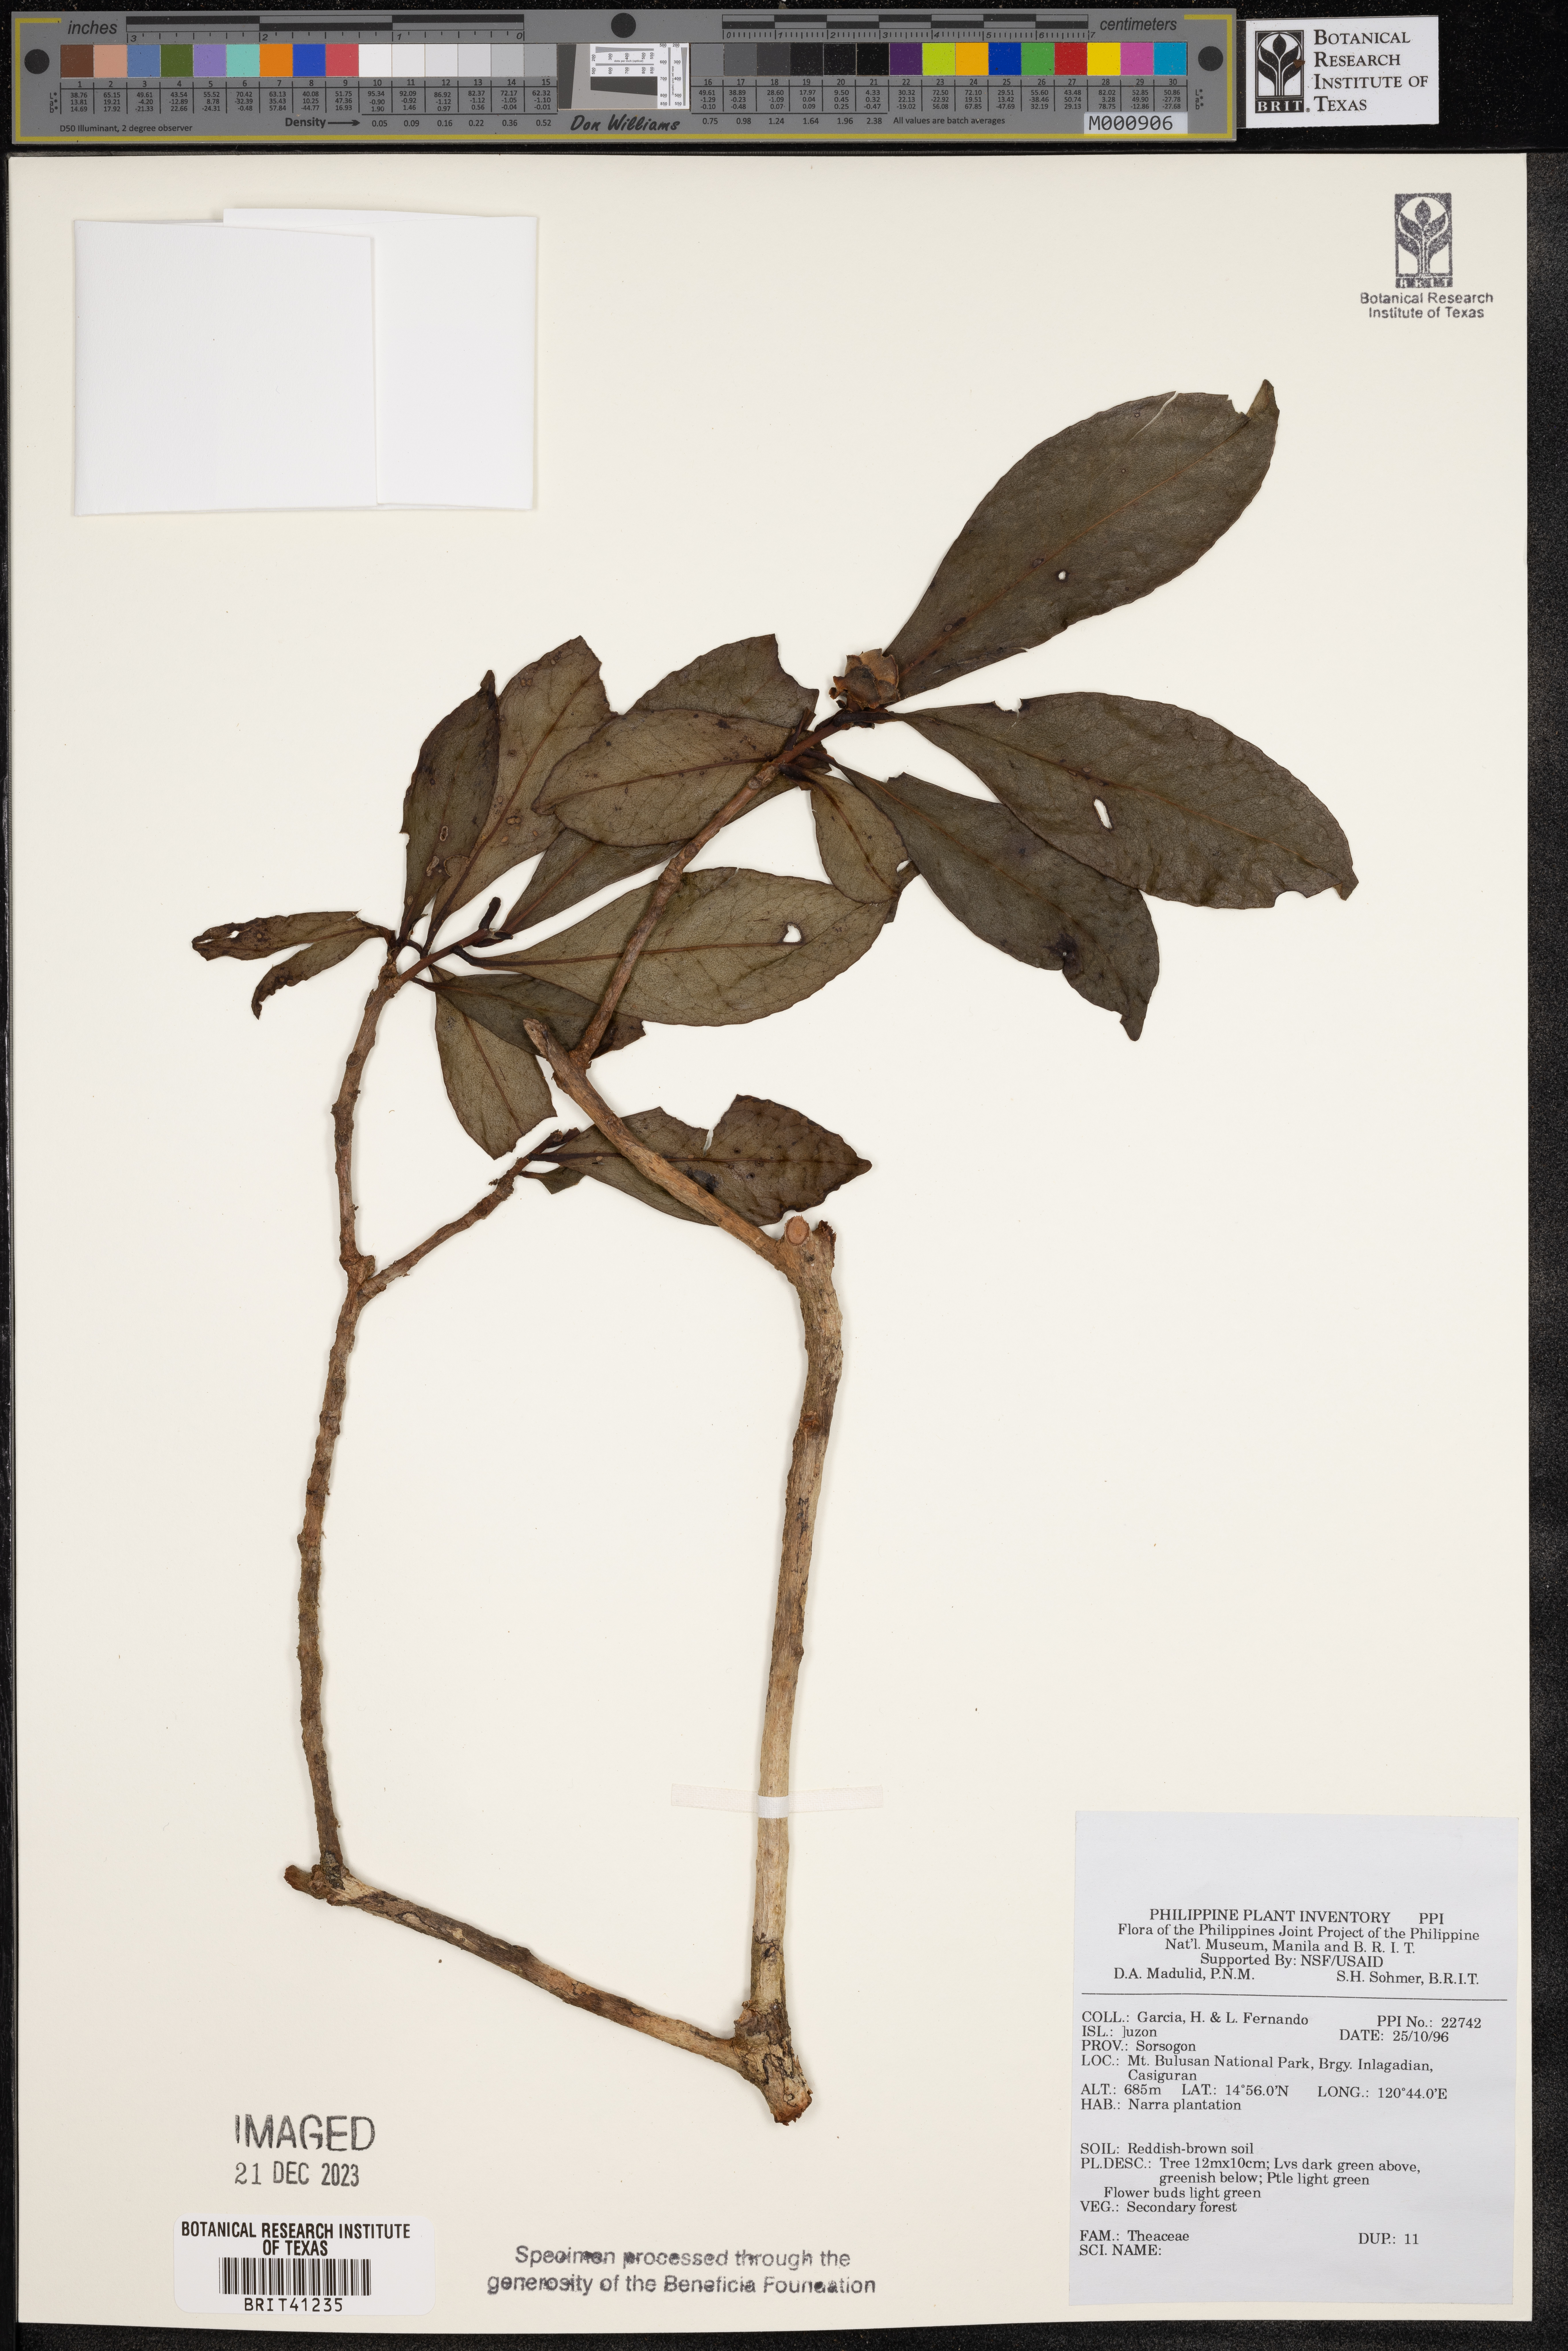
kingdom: Plantae
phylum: Tracheophyta
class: Magnoliopsida
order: Ericales
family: Theaceae
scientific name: Theaceae
